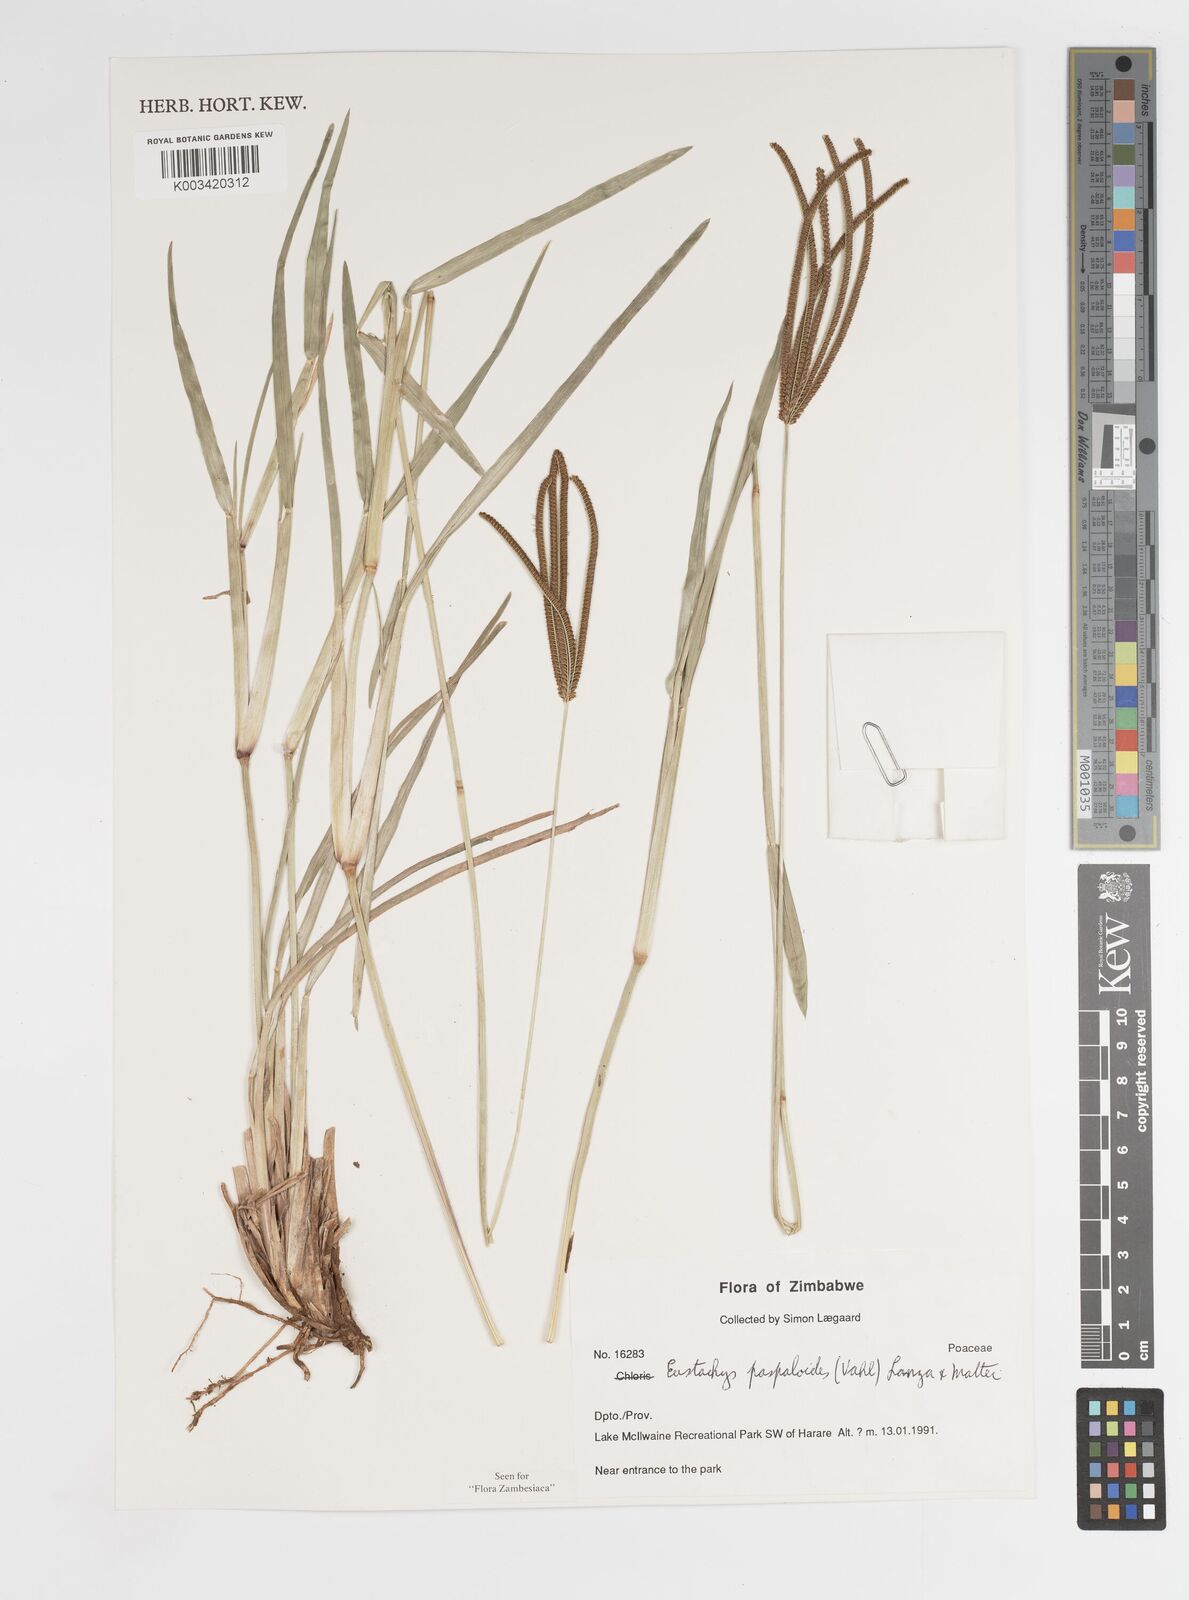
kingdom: Plantae
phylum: Tracheophyta
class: Liliopsida
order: Poales
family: Poaceae
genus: Eustachys
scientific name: Eustachys paspaloides
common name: Caribbean fingergrass
